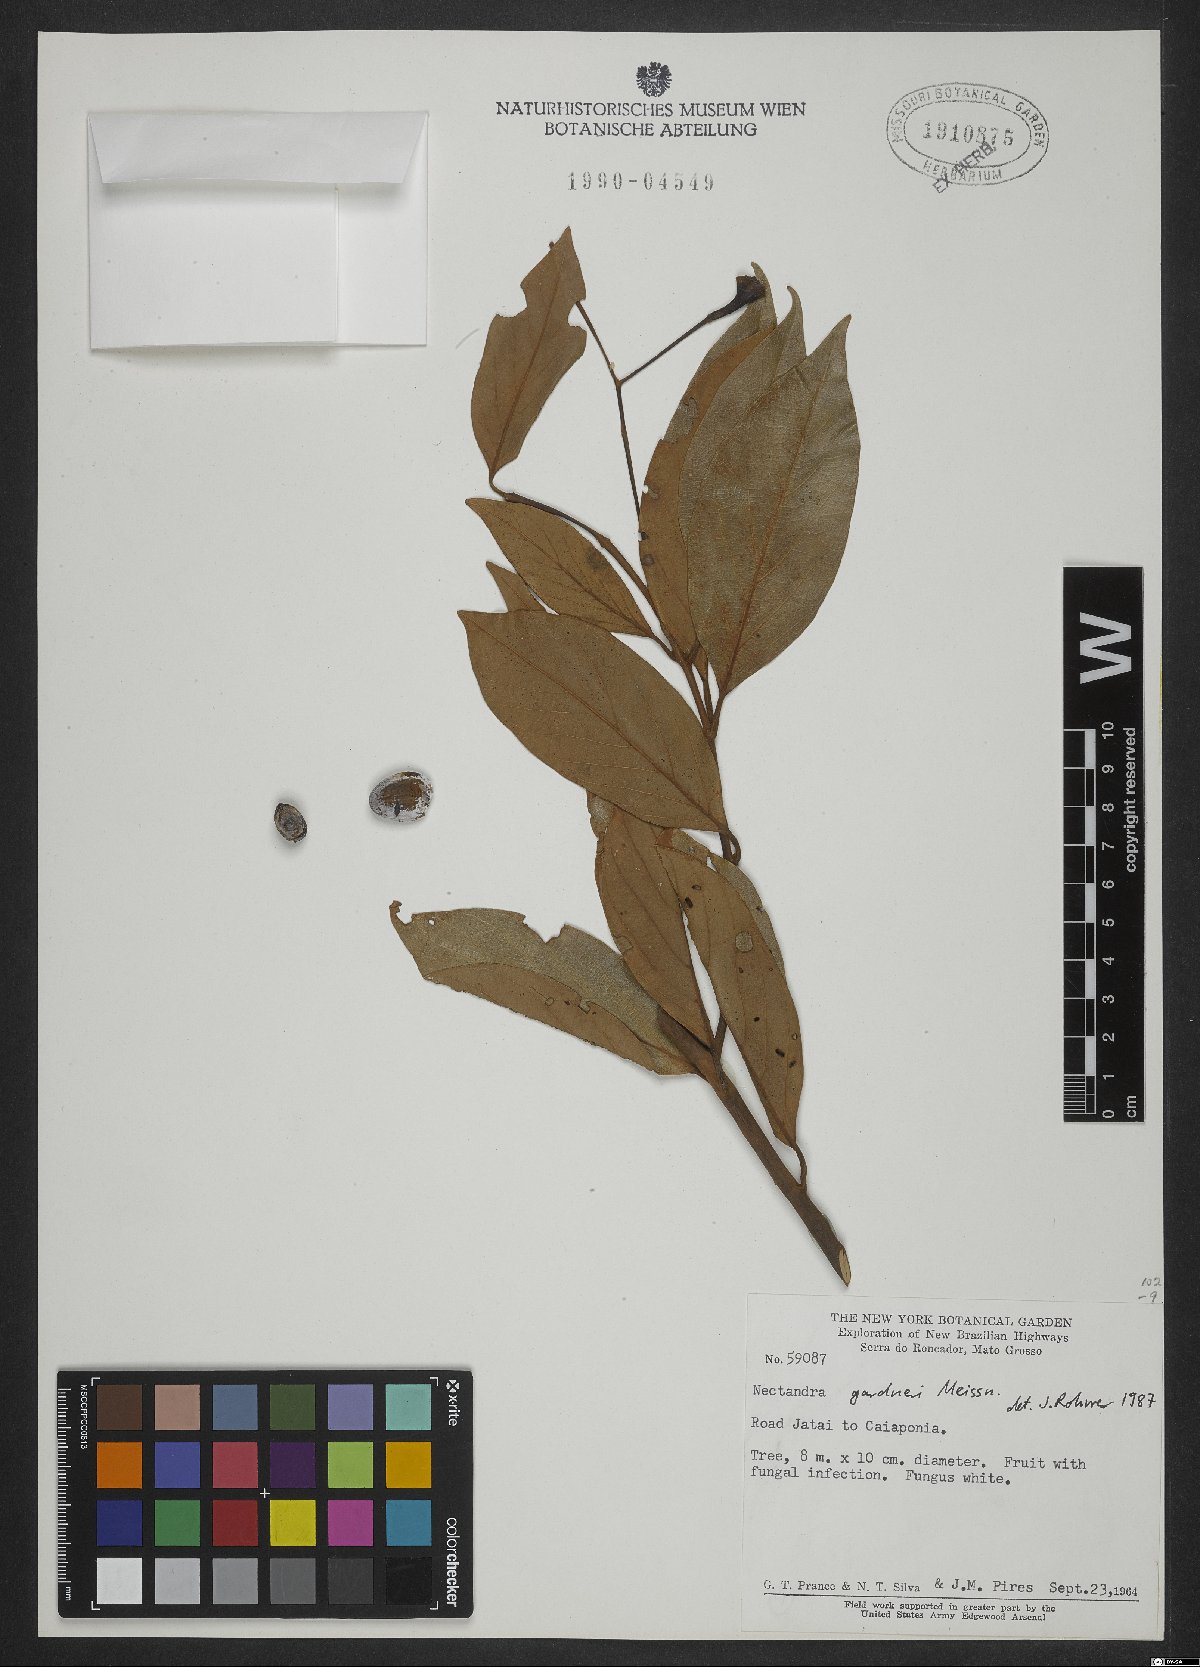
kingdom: Plantae
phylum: Tracheophyta
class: Magnoliopsida
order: Laurales
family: Lauraceae
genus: Nectandra
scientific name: Nectandra gardneri
